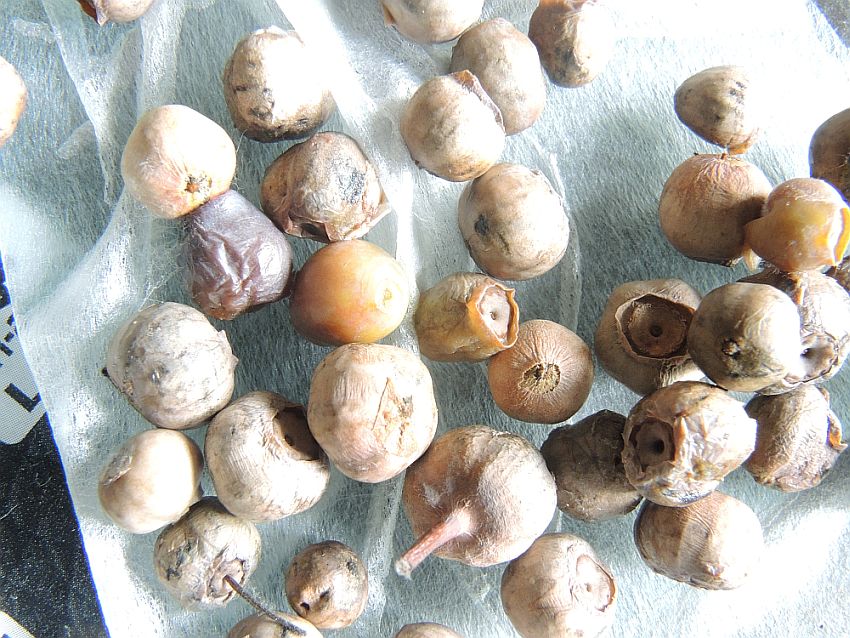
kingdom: Fungi
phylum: Ascomycota
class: Leotiomycetes
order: Helotiales
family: Sclerotiniaceae
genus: Monilinia
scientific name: Monilinia baccarum
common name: blåbær-knoldskive
